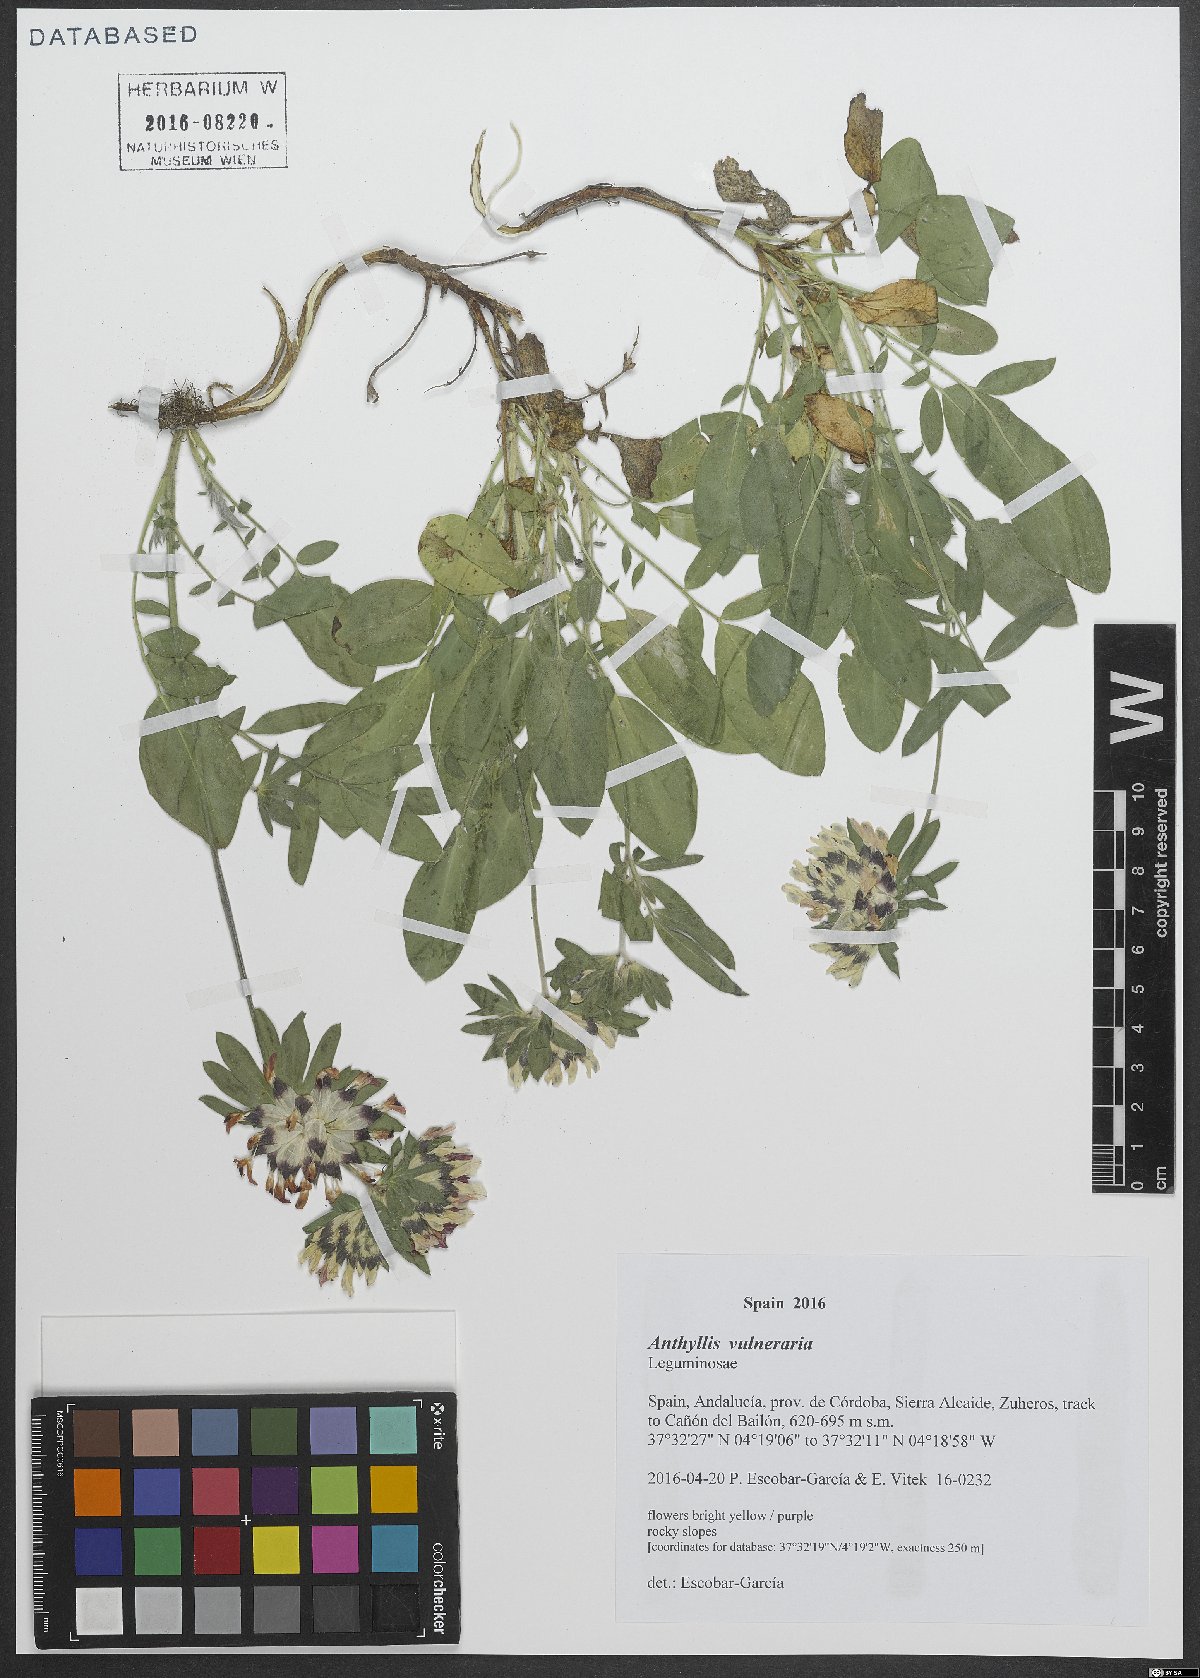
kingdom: Plantae
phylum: Tracheophyta
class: Magnoliopsida
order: Fabales
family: Fabaceae
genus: Anthyllis
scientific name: Anthyllis vulneraria
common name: Kidney vetch
